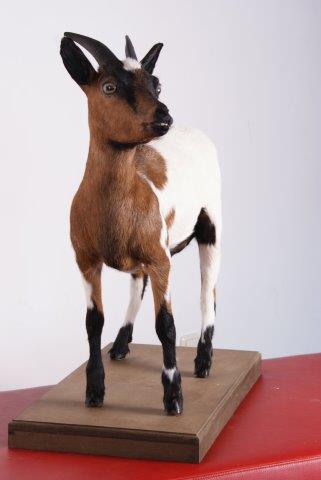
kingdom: Animalia
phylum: Chordata
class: Mammalia
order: Artiodactyla
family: Bovidae
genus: Capra
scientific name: Capra hircus
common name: Goat
